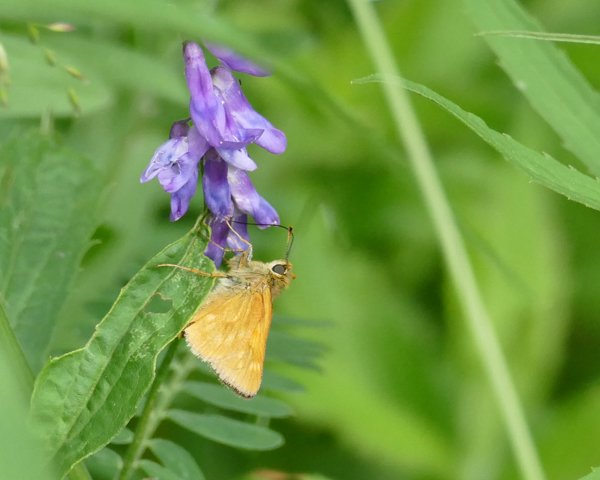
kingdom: Animalia
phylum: Arthropoda
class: Insecta
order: Lepidoptera
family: Hesperiidae
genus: Polites
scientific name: Polites
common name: Long Dash Skipper
